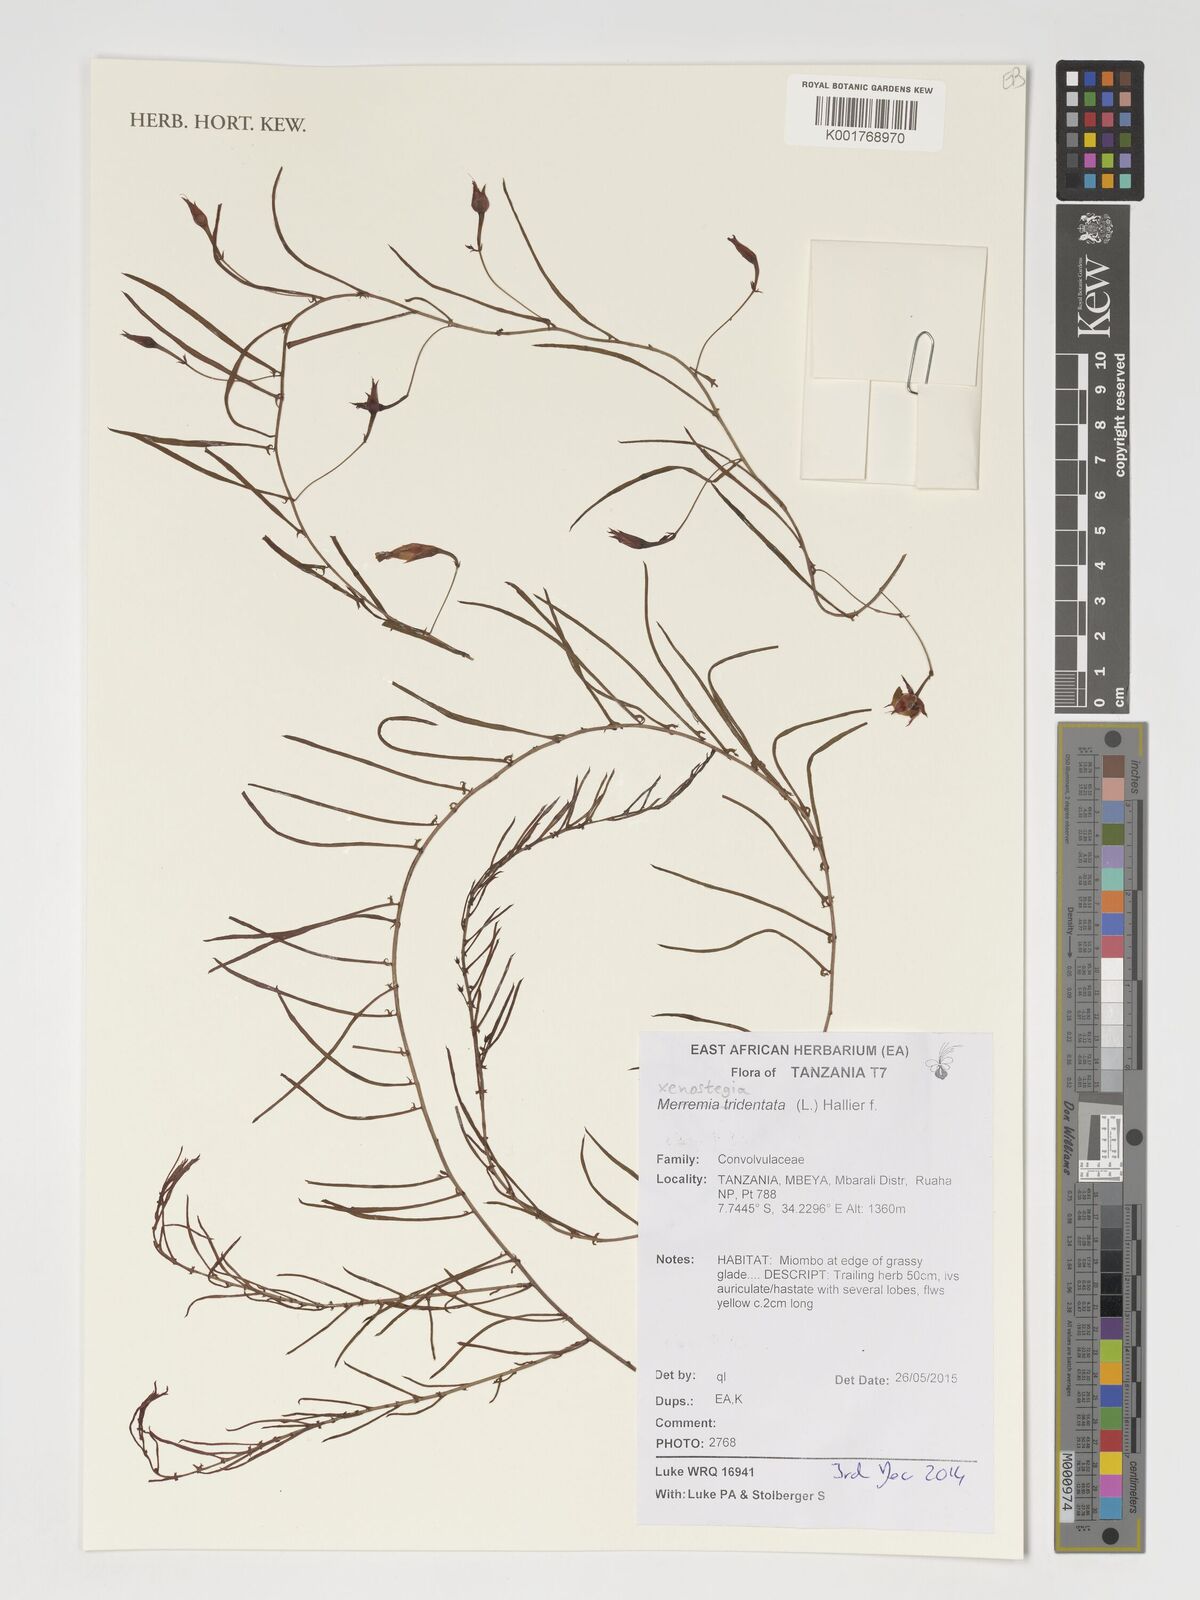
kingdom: Plantae
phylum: Tracheophyta
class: Magnoliopsida
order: Solanales
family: Convolvulaceae
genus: Xenostegia
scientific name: Xenostegia tridentata
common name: African morningvine
